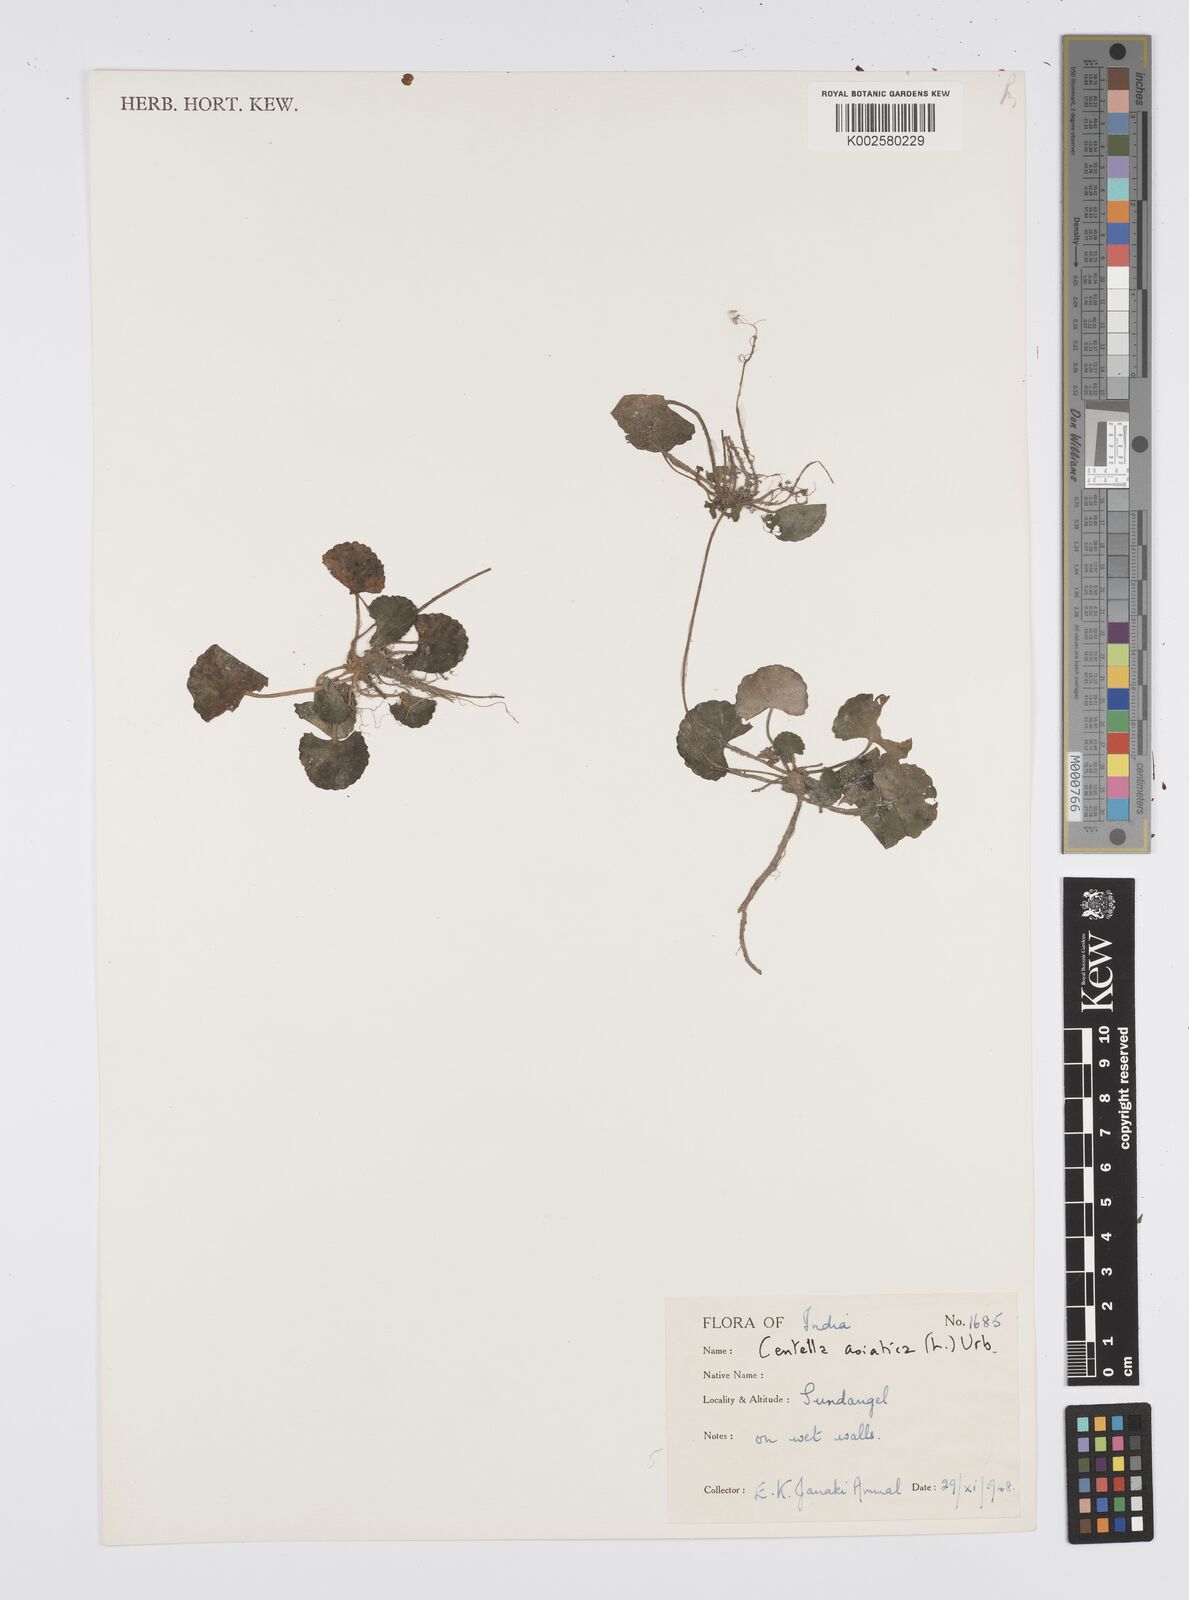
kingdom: Plantae
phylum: Tracheophyta
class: Magnoliopsida
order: Apiales
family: Apiaceae
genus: Centella
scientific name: Centella asiatica
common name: Spadeleaf
